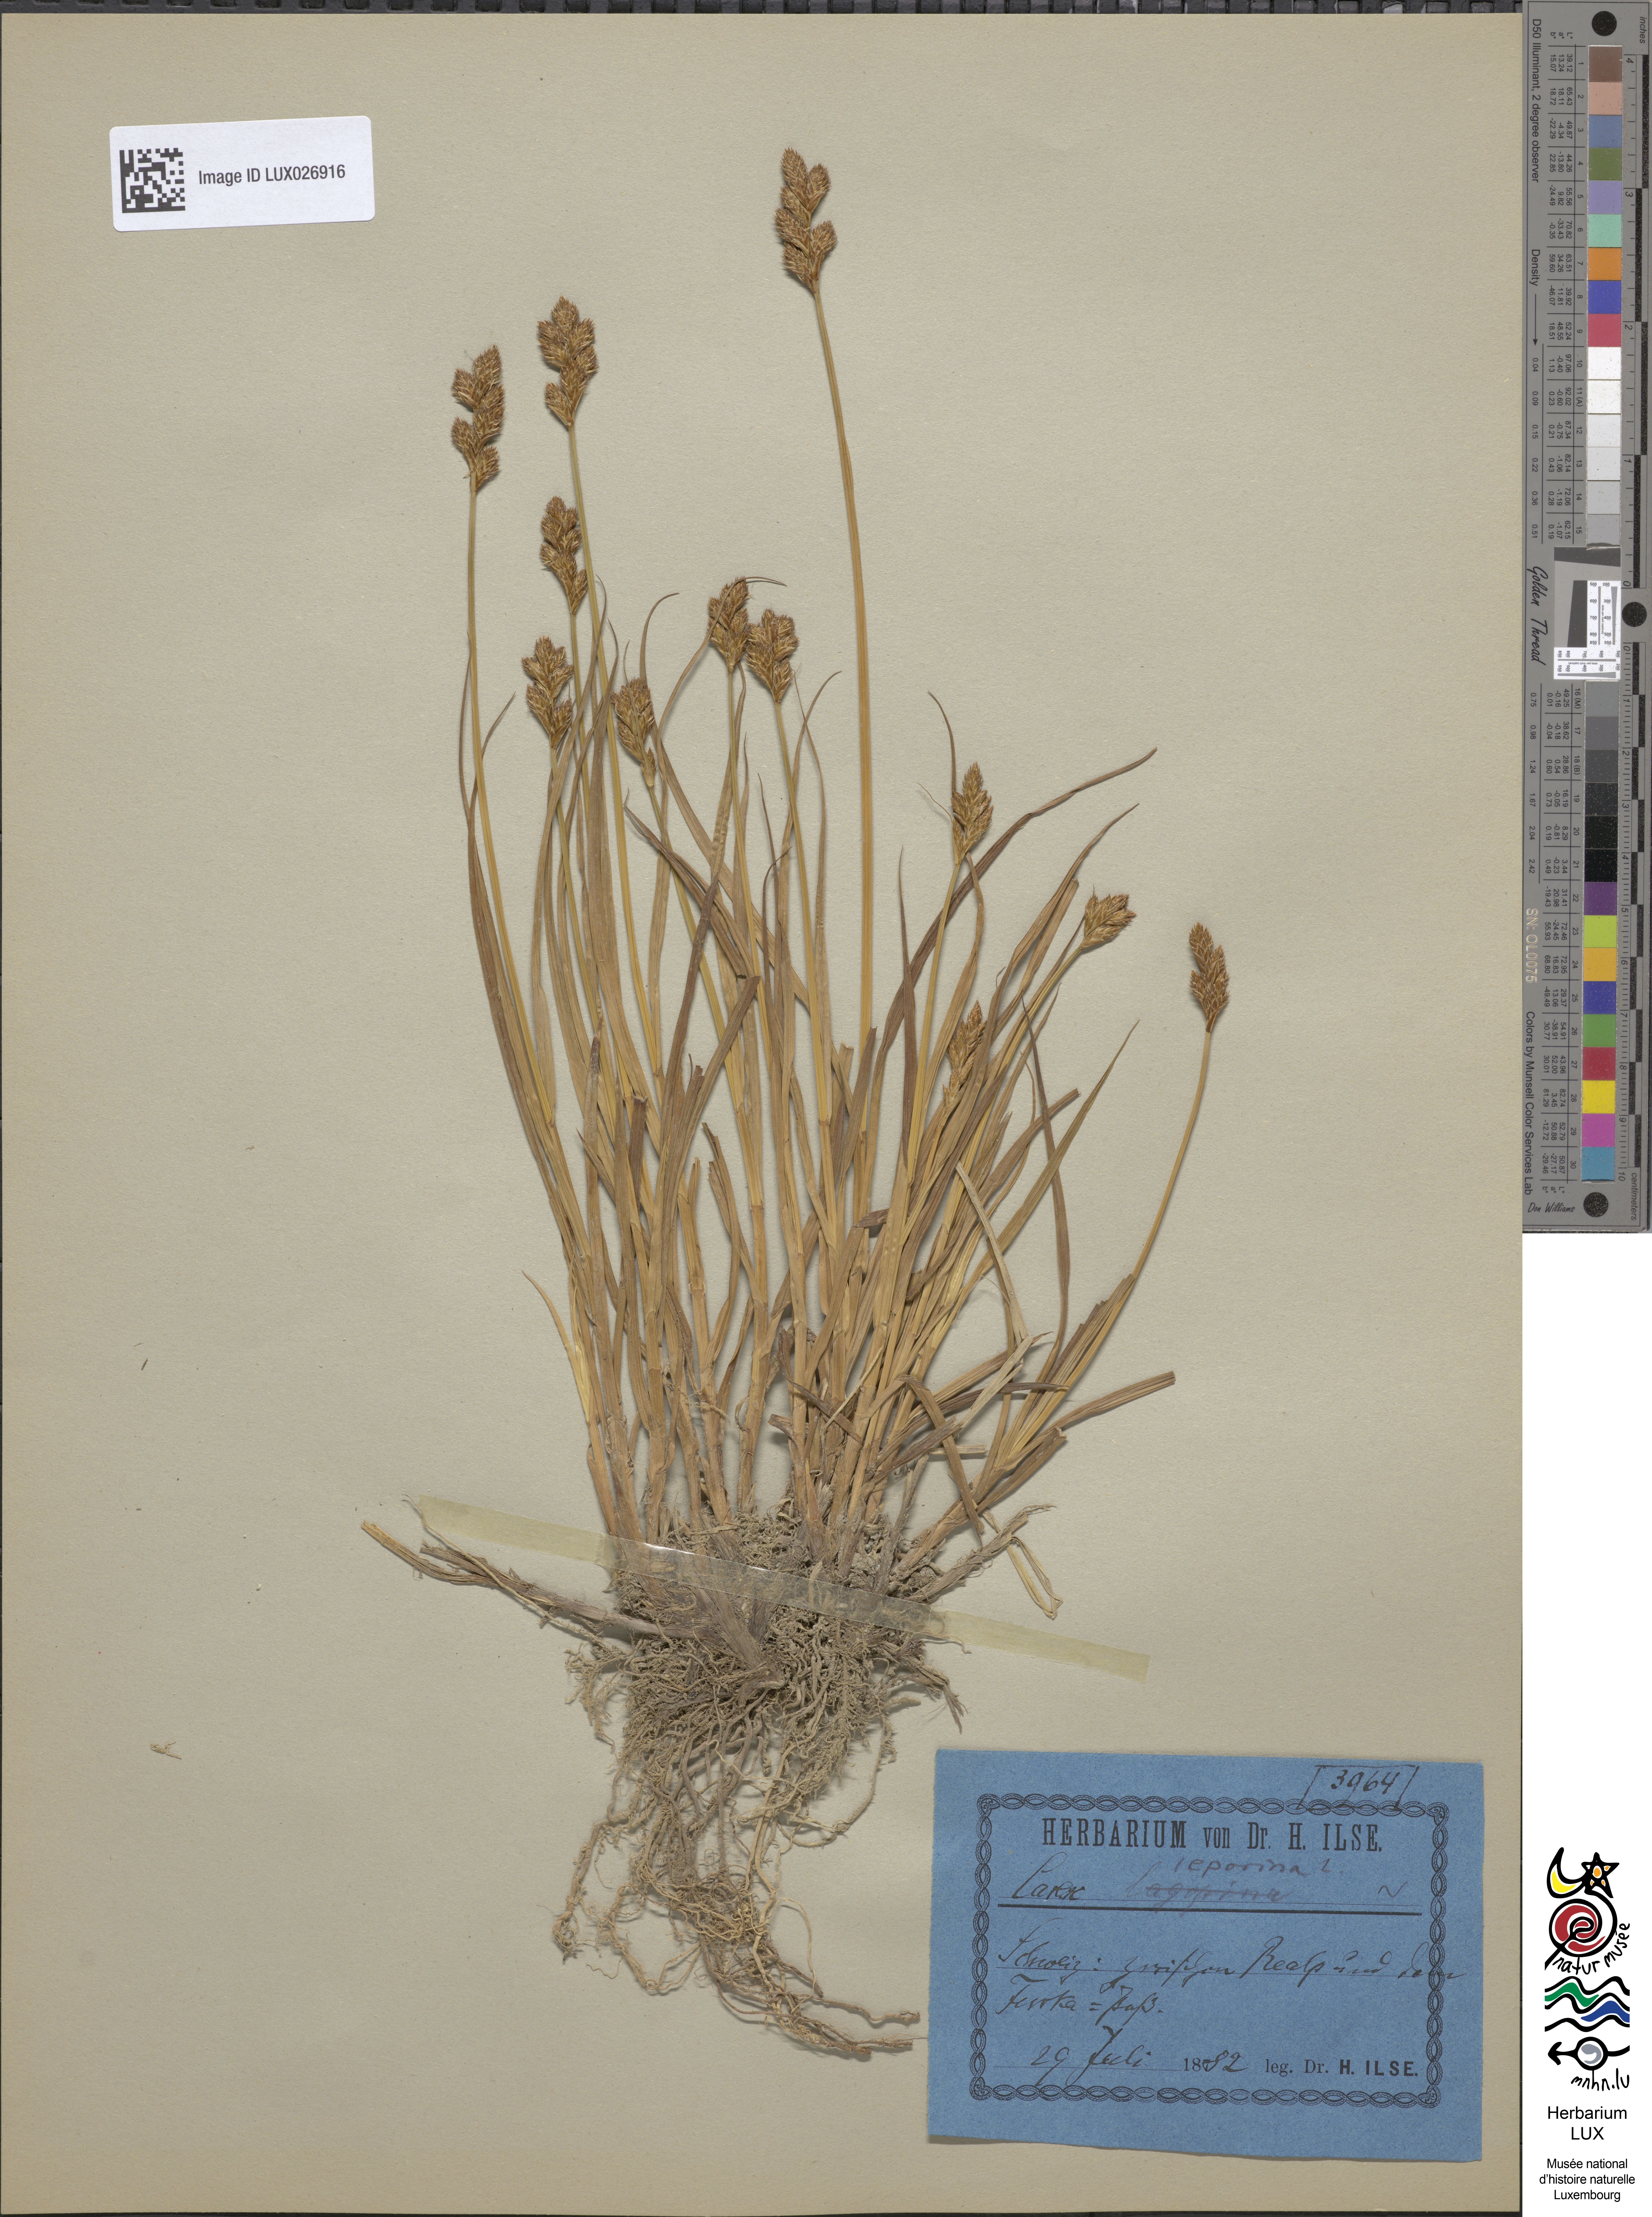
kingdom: Plantae
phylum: Tracheophyta
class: Liliopsida
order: Poales
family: Cyperaceae
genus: Carex
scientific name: Carex leporina
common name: Oval sedge
